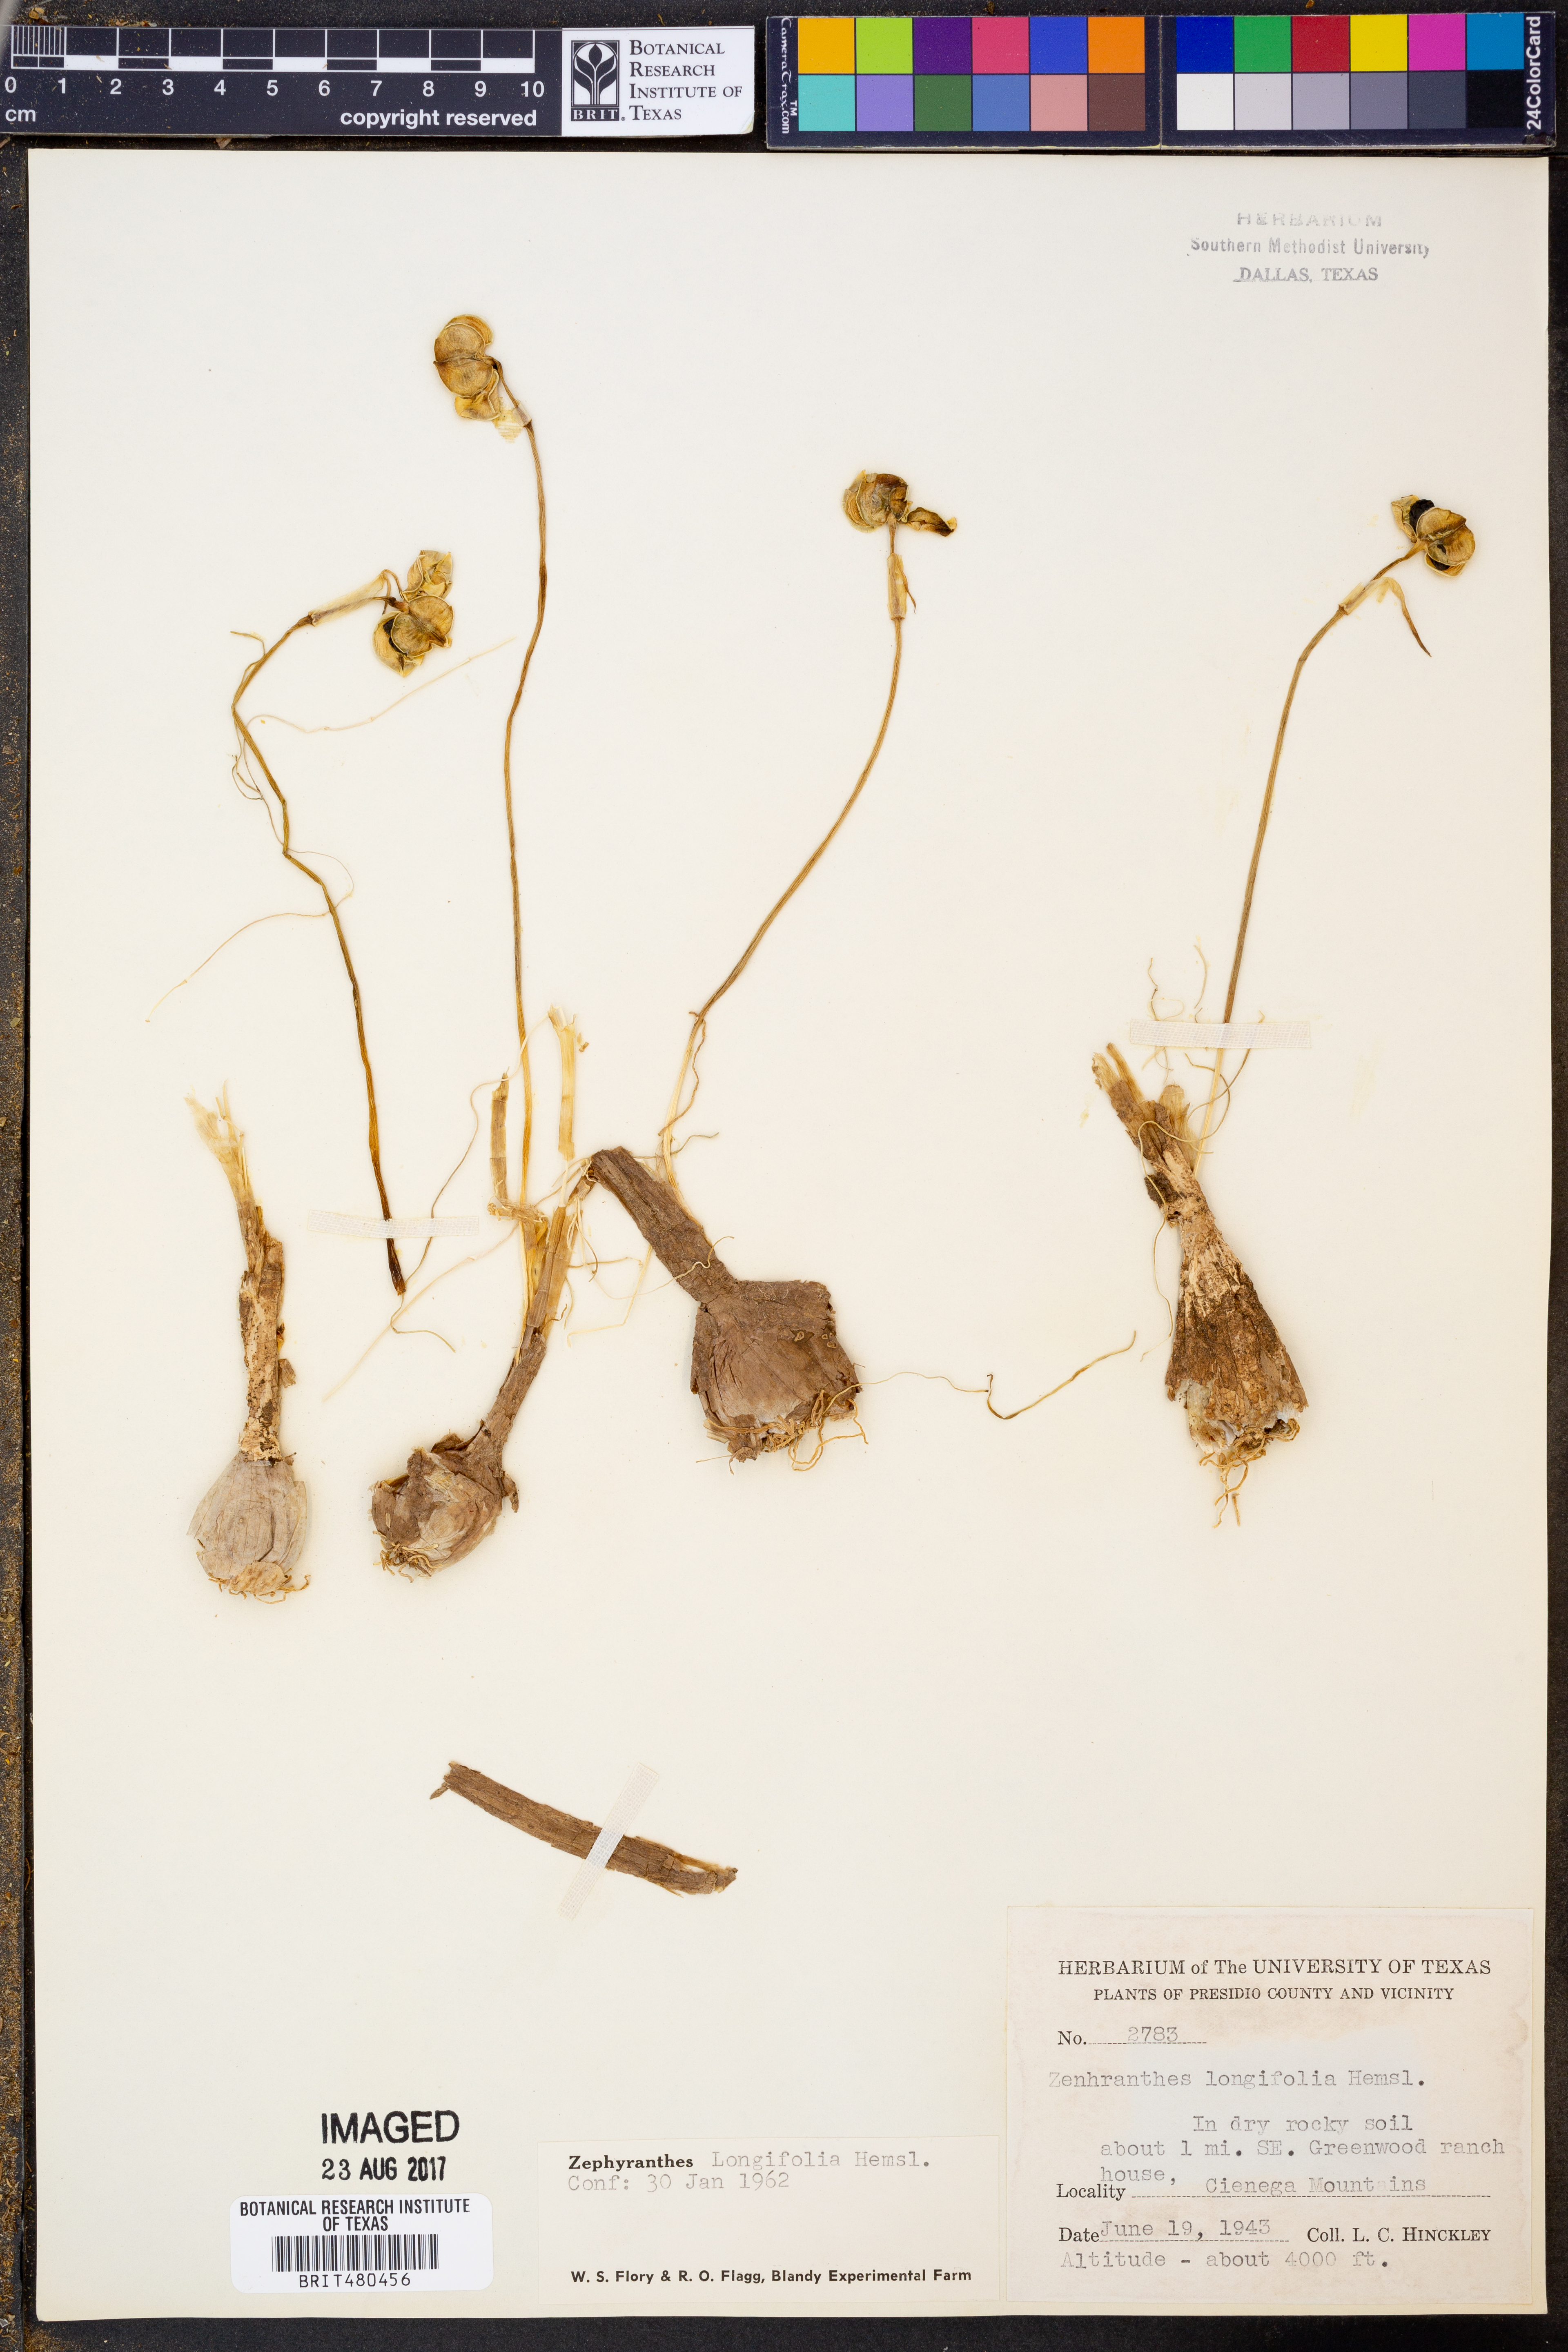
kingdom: Plantae
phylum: Tracheophyta
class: Liliopsida
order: Asparagales
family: Amaryllidaceae
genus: Zephyranthes
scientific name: Zephyranthes longifolia
